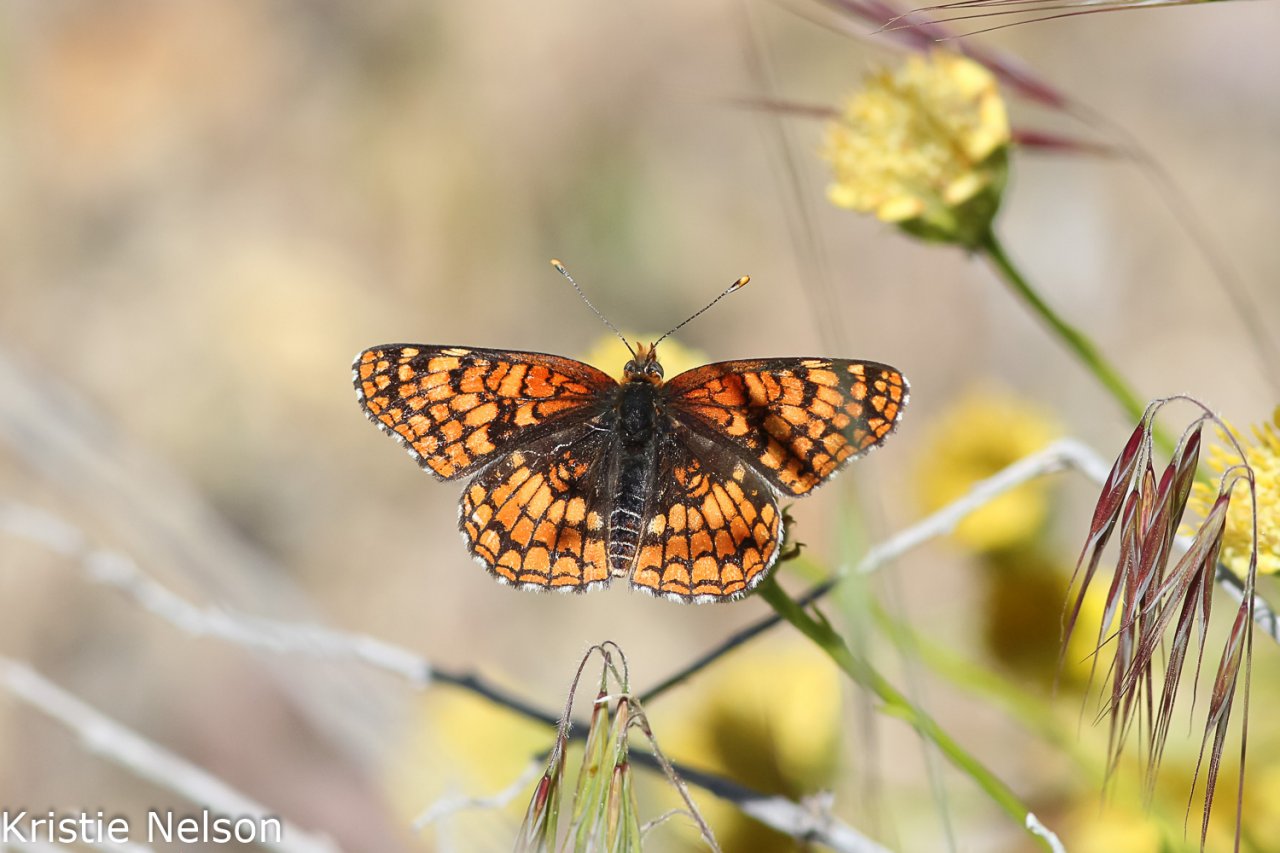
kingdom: Animalia
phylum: Arthropoda
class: Insecta
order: Lepidoptera
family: Nymphalidae
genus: Chlosyne
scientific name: Chlosyne palla
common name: Northern Checkerspot
